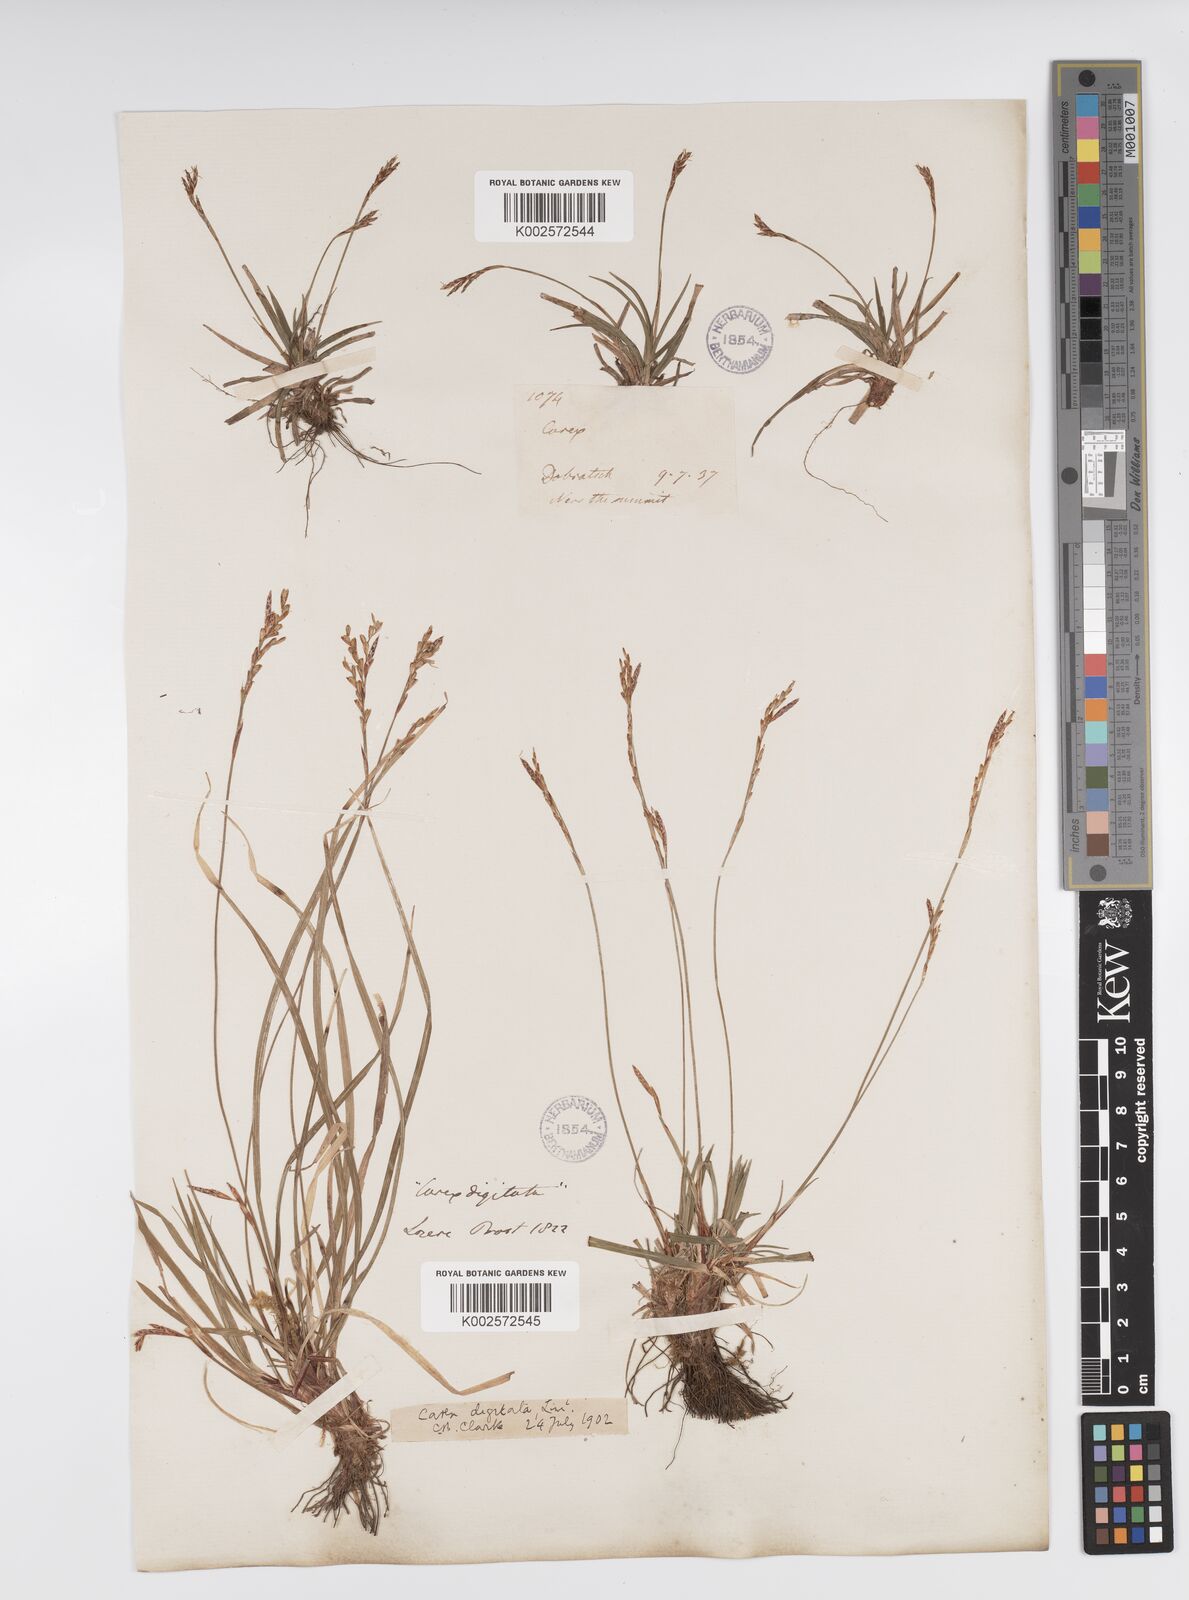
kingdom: Plantae
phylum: Tracheophyta
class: Liliopsida
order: Poales
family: Cyperaceae
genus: Carex
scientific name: Carex digitata
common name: Fingered sedge
